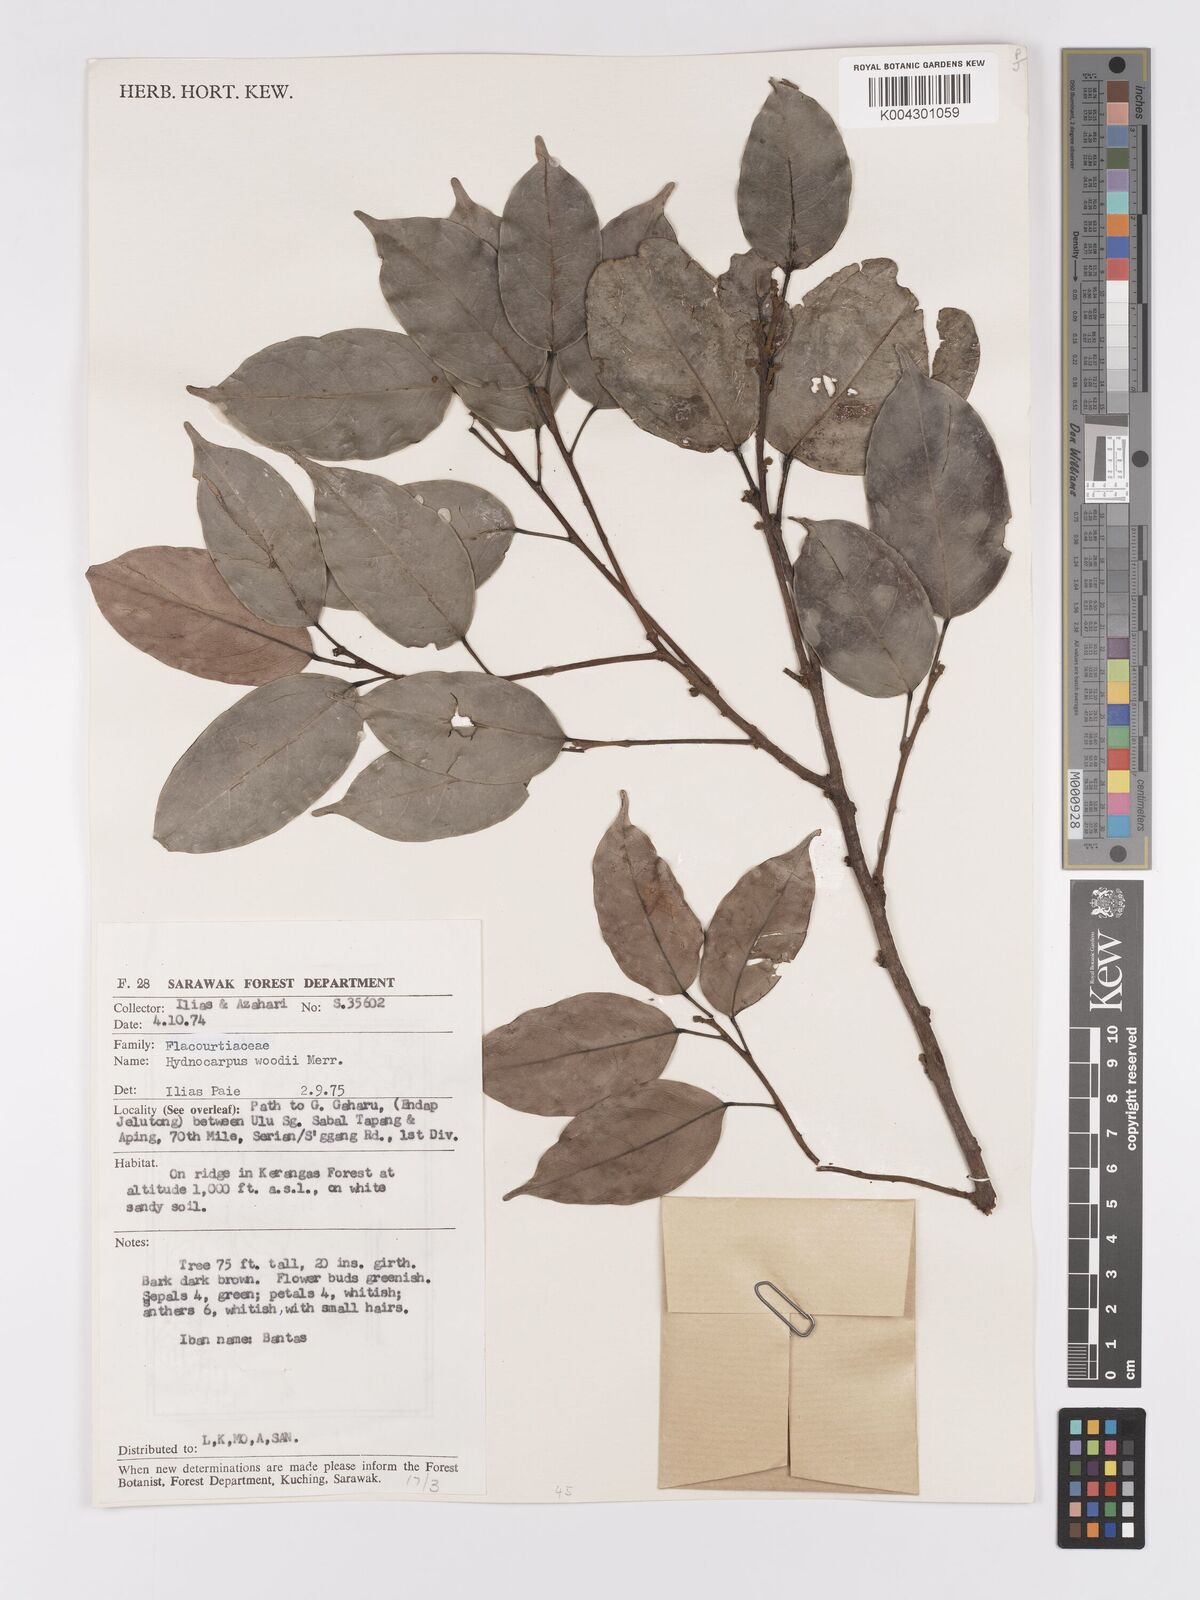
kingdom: Plantae
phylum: Tracheophyta
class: Magnoliopsida
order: Malpighiales
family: Achariaceae
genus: Hydnocarpus
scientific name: Hydnocarpus woodii
